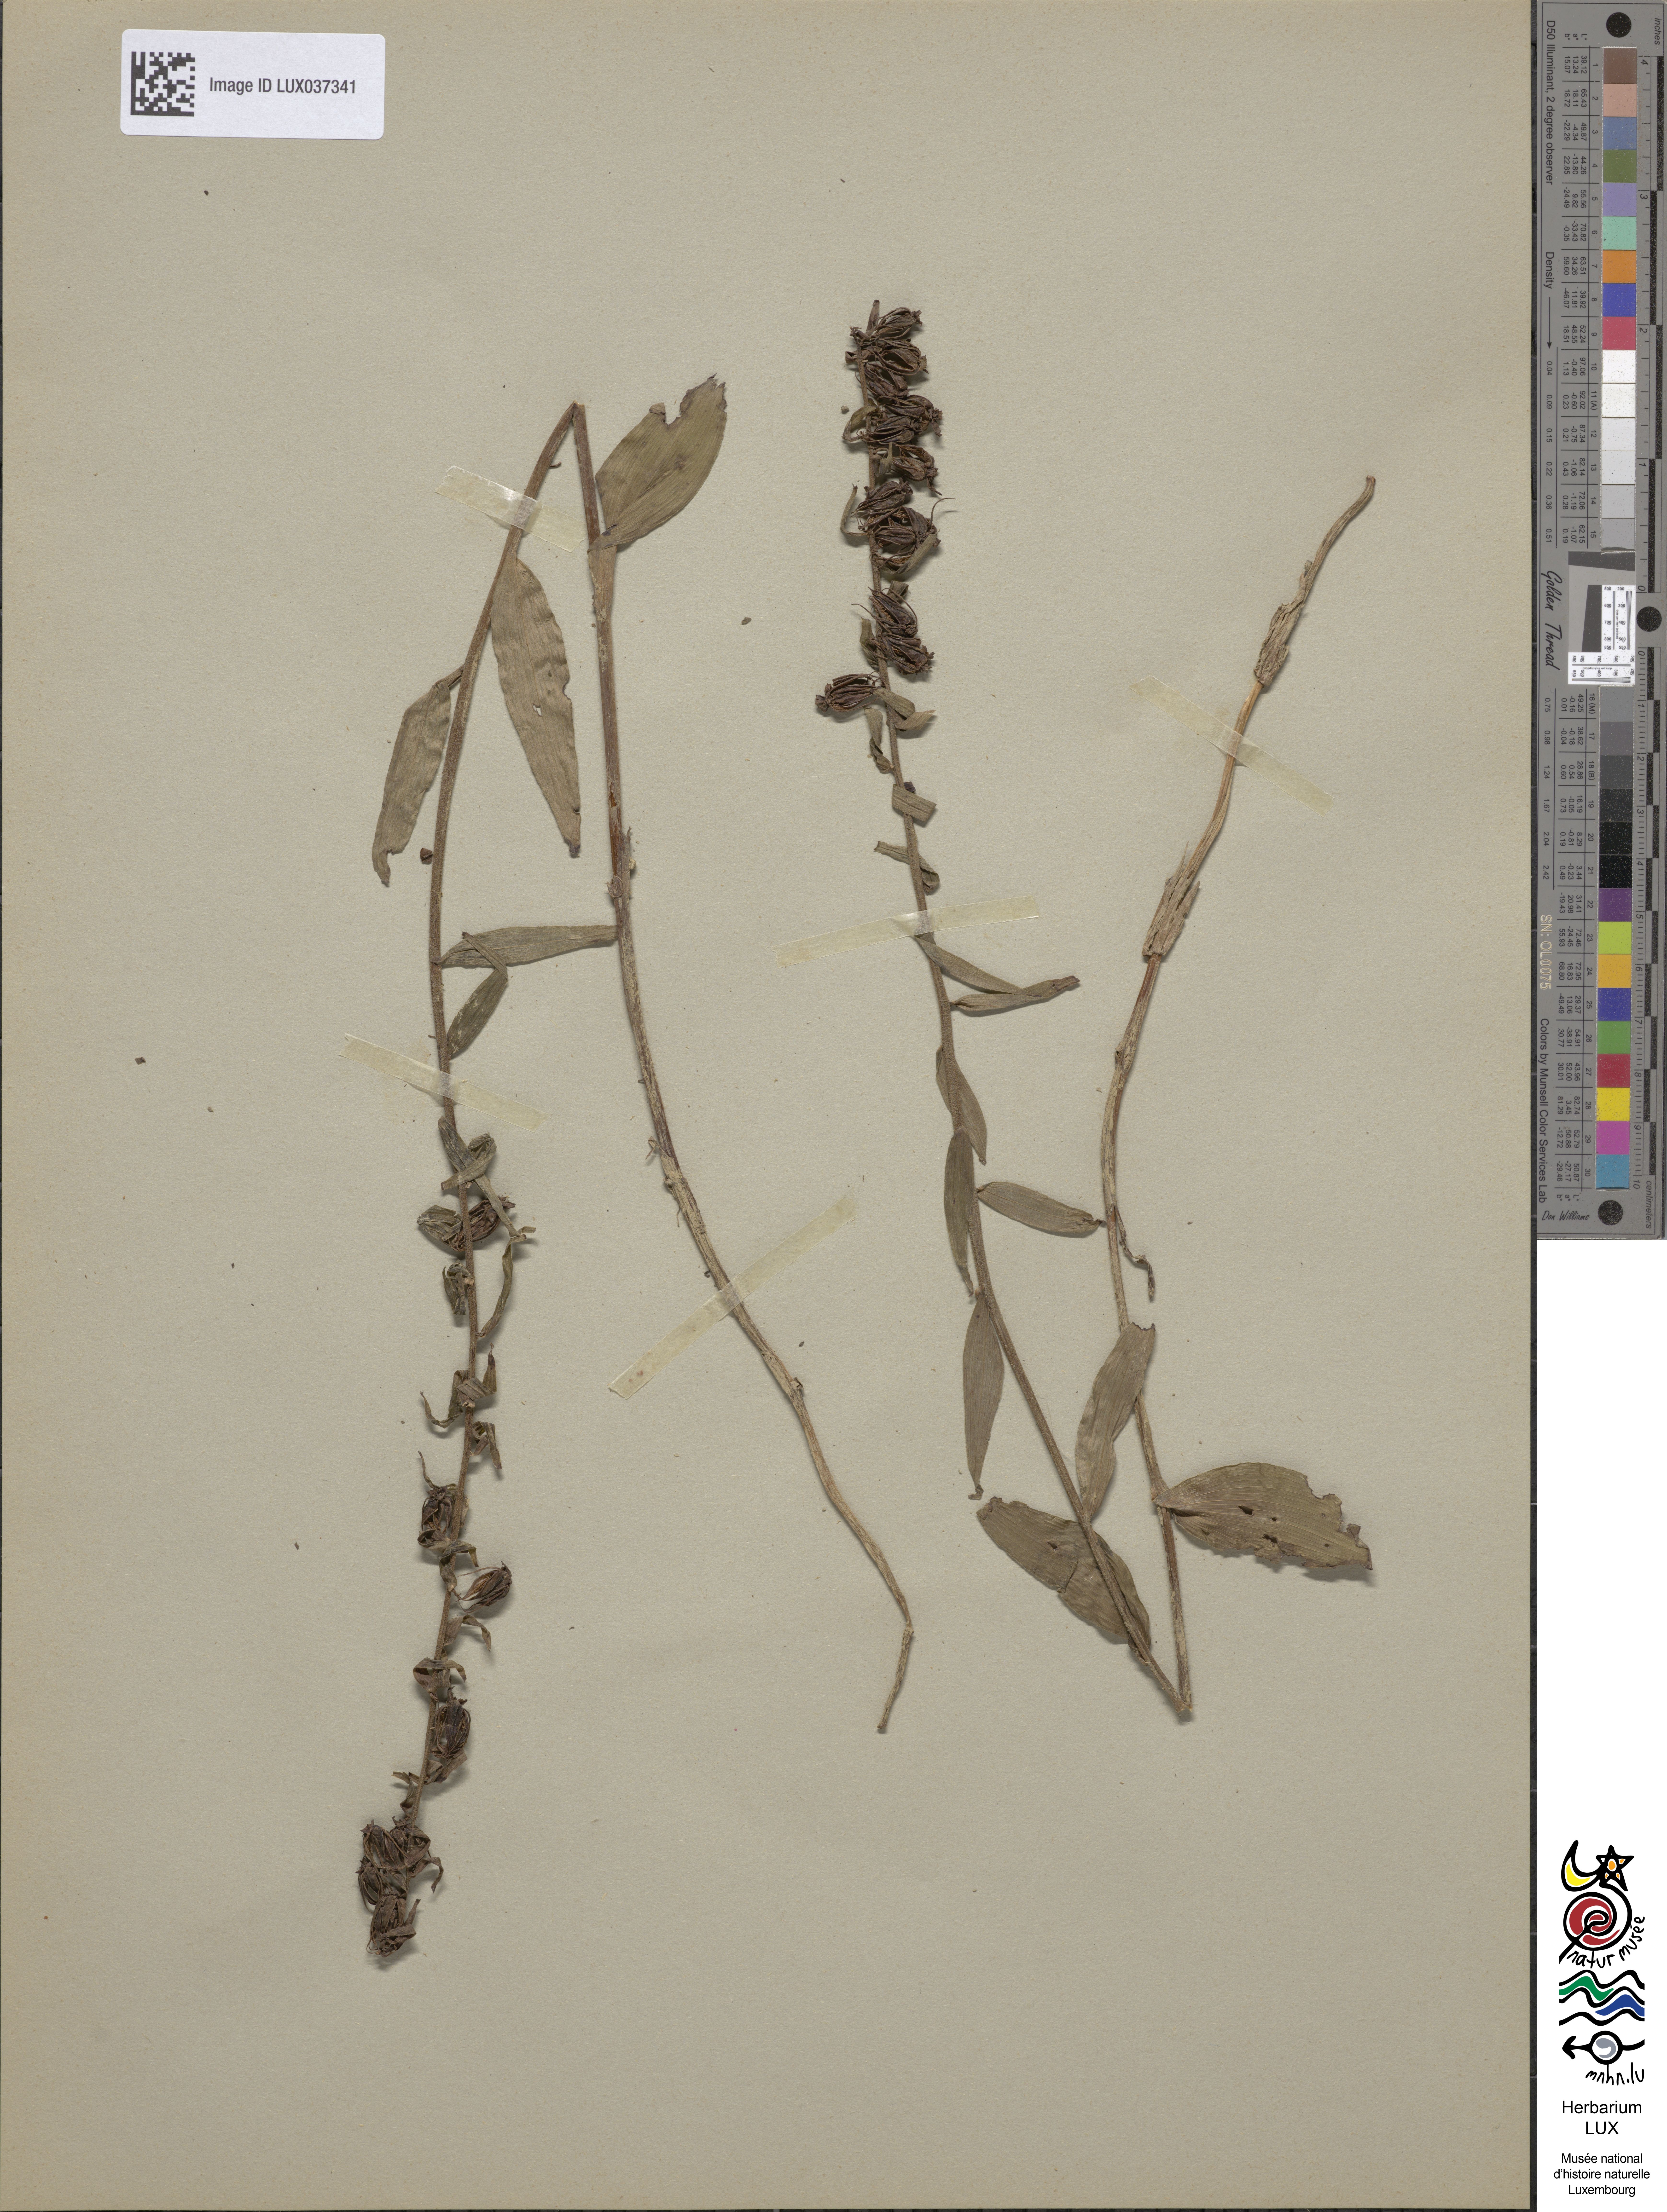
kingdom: Plantae
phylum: Tracheophyta
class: Liliopsida
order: Asparagales
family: Orchidaceae
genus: Epipactis
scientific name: Epipactis purpurata
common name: Violet helleborine
